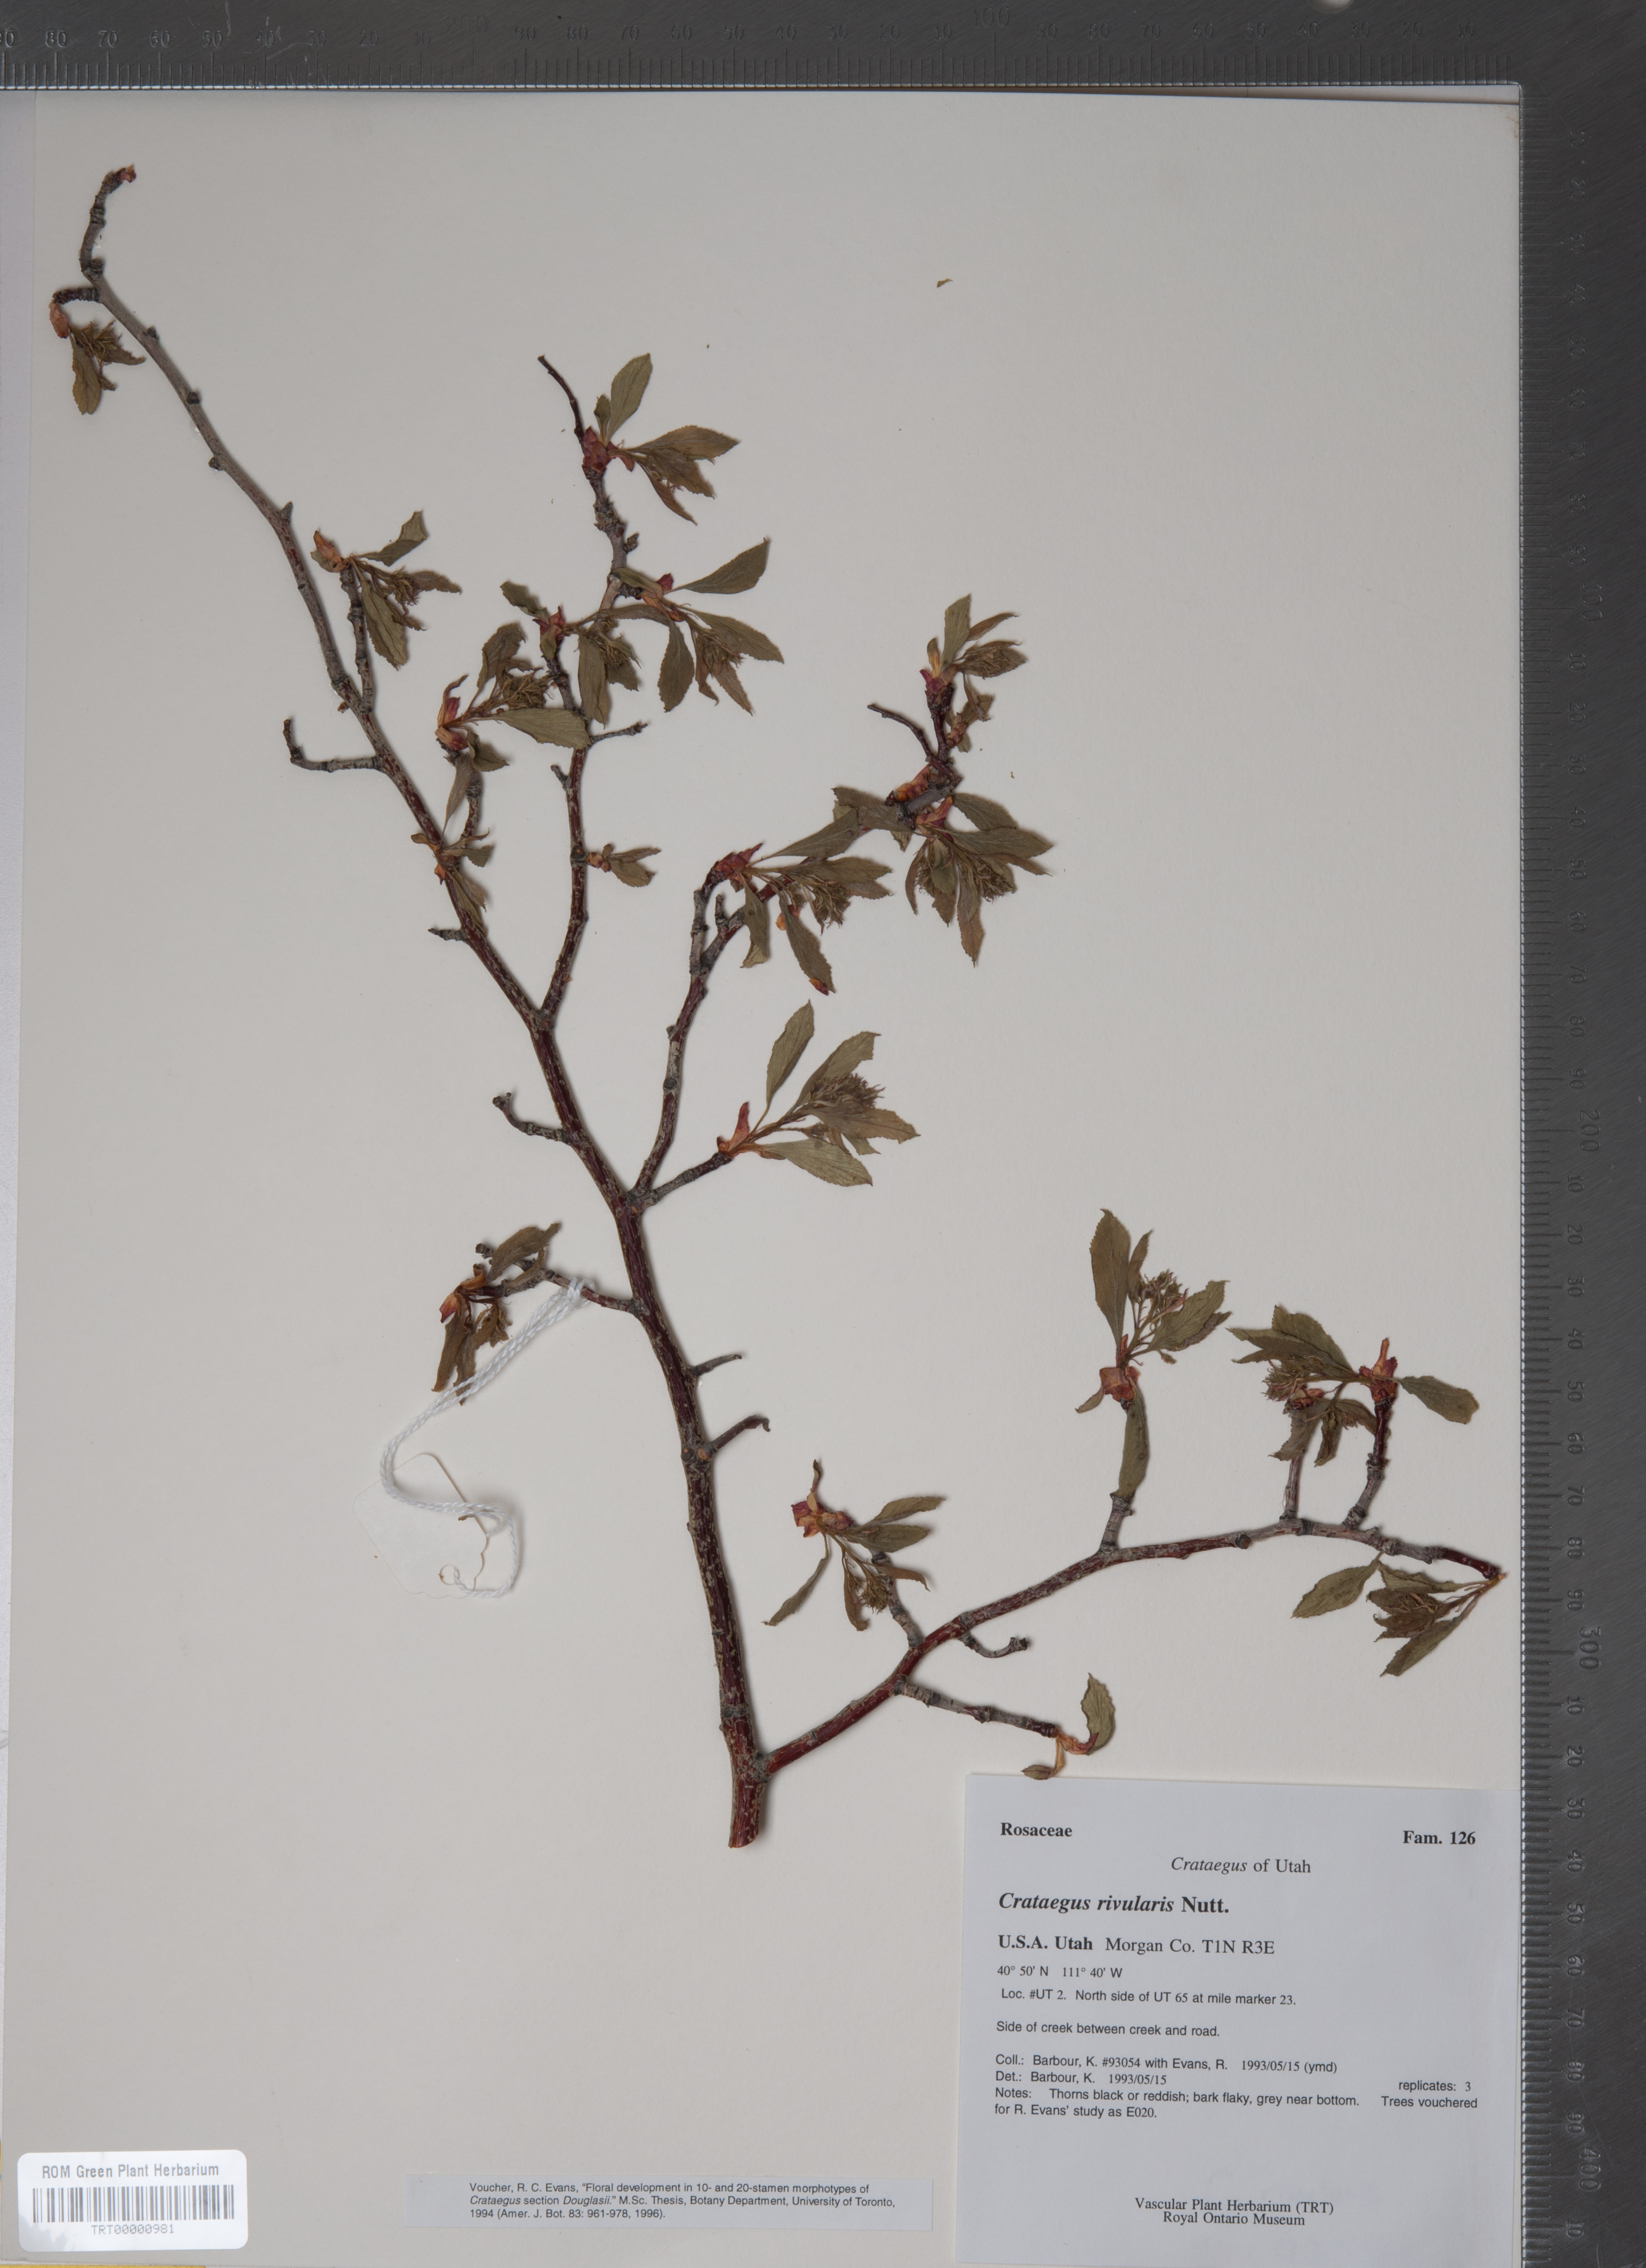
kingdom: Plantae
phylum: Tracheophyta
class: Magnoliopsida
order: Rosales
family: Rosaceae
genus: Crataegus
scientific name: Crataegus rivularis
